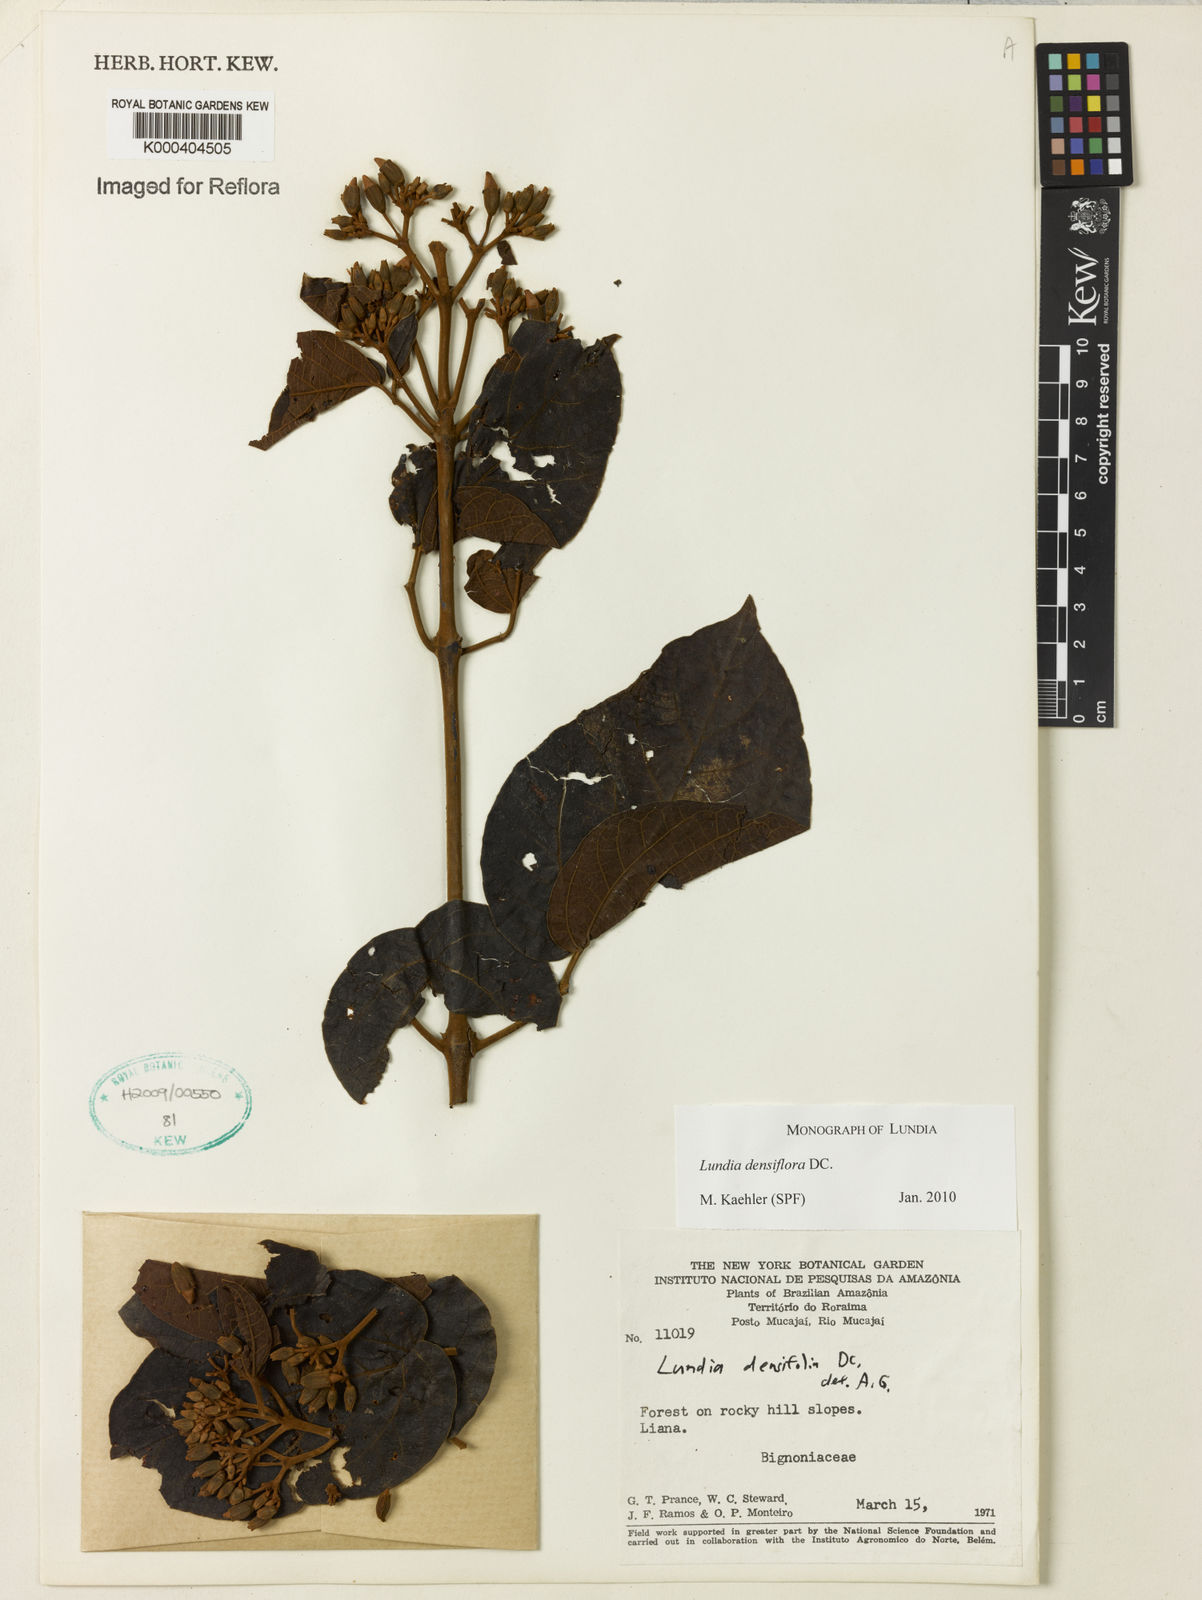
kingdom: Plantae
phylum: Tracheophyta
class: Magnoliopsida
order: Lamiales
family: Bignoniaceae
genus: Lundia
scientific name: Lundia densiflora
